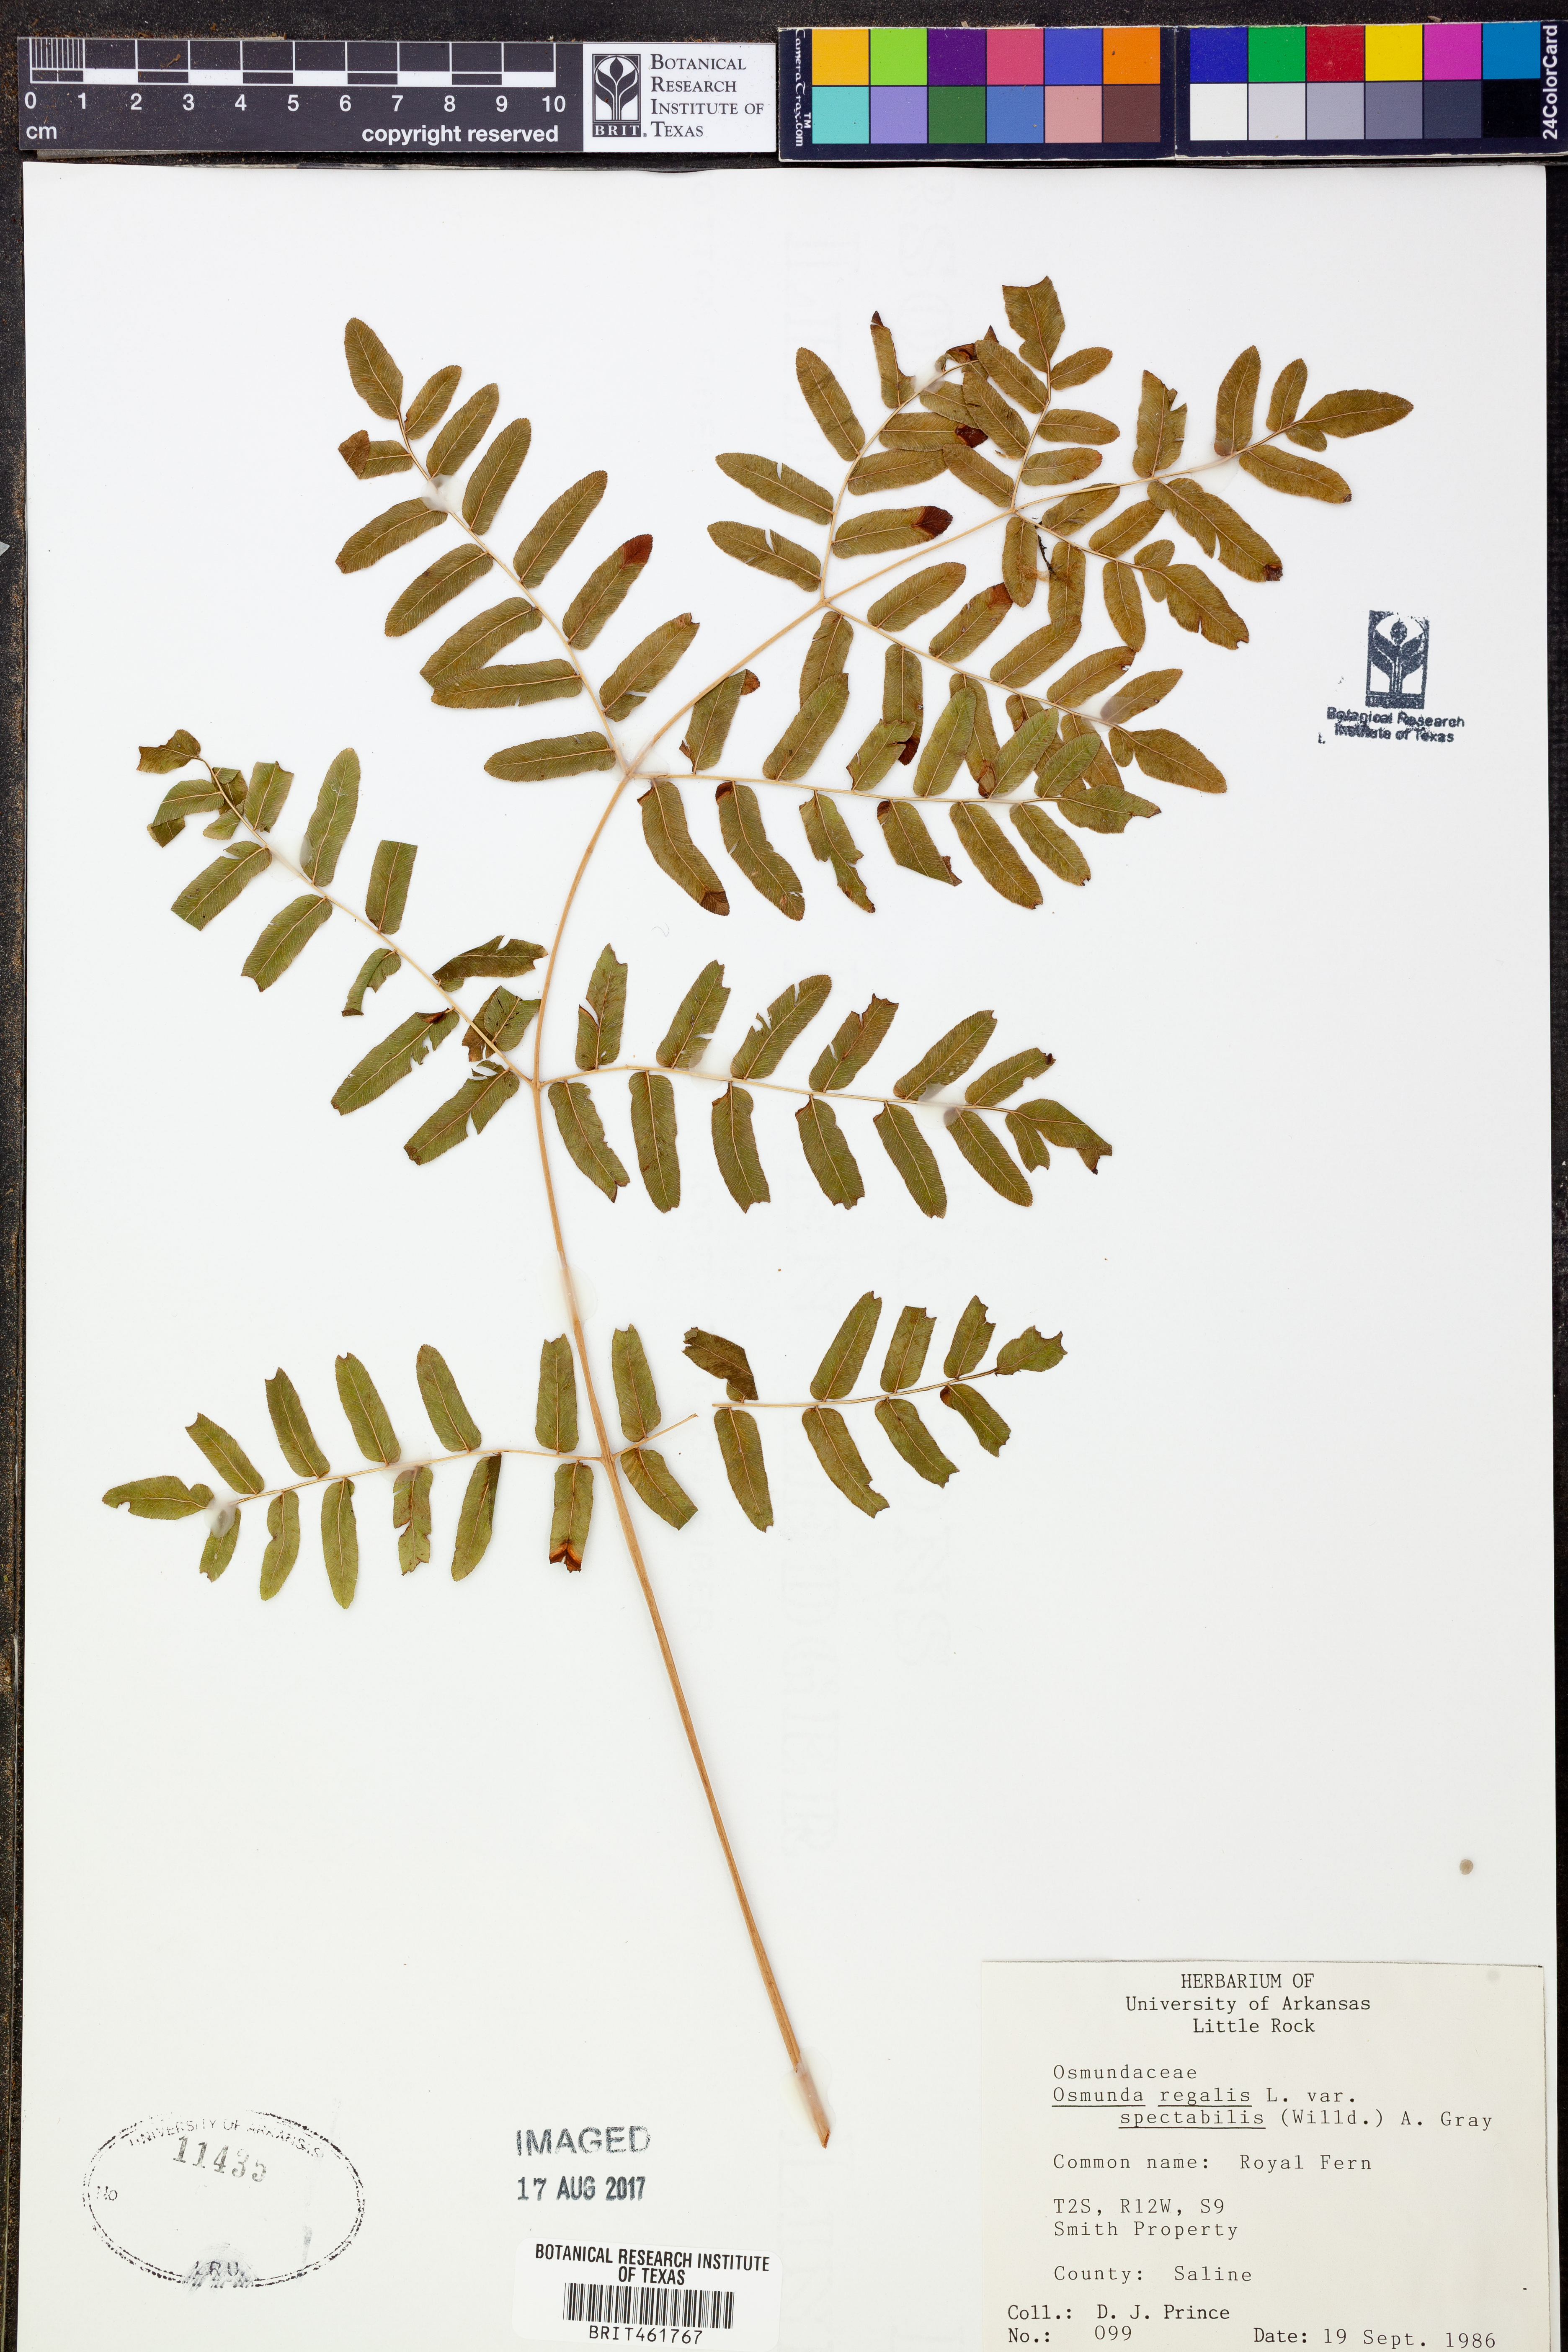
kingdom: Plantae
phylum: Tracheophyta
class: Polypodiopsida
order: Osmundales
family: Osmundaceae
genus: Osmunda
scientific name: Osmunda spectabilis
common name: American royal fern
